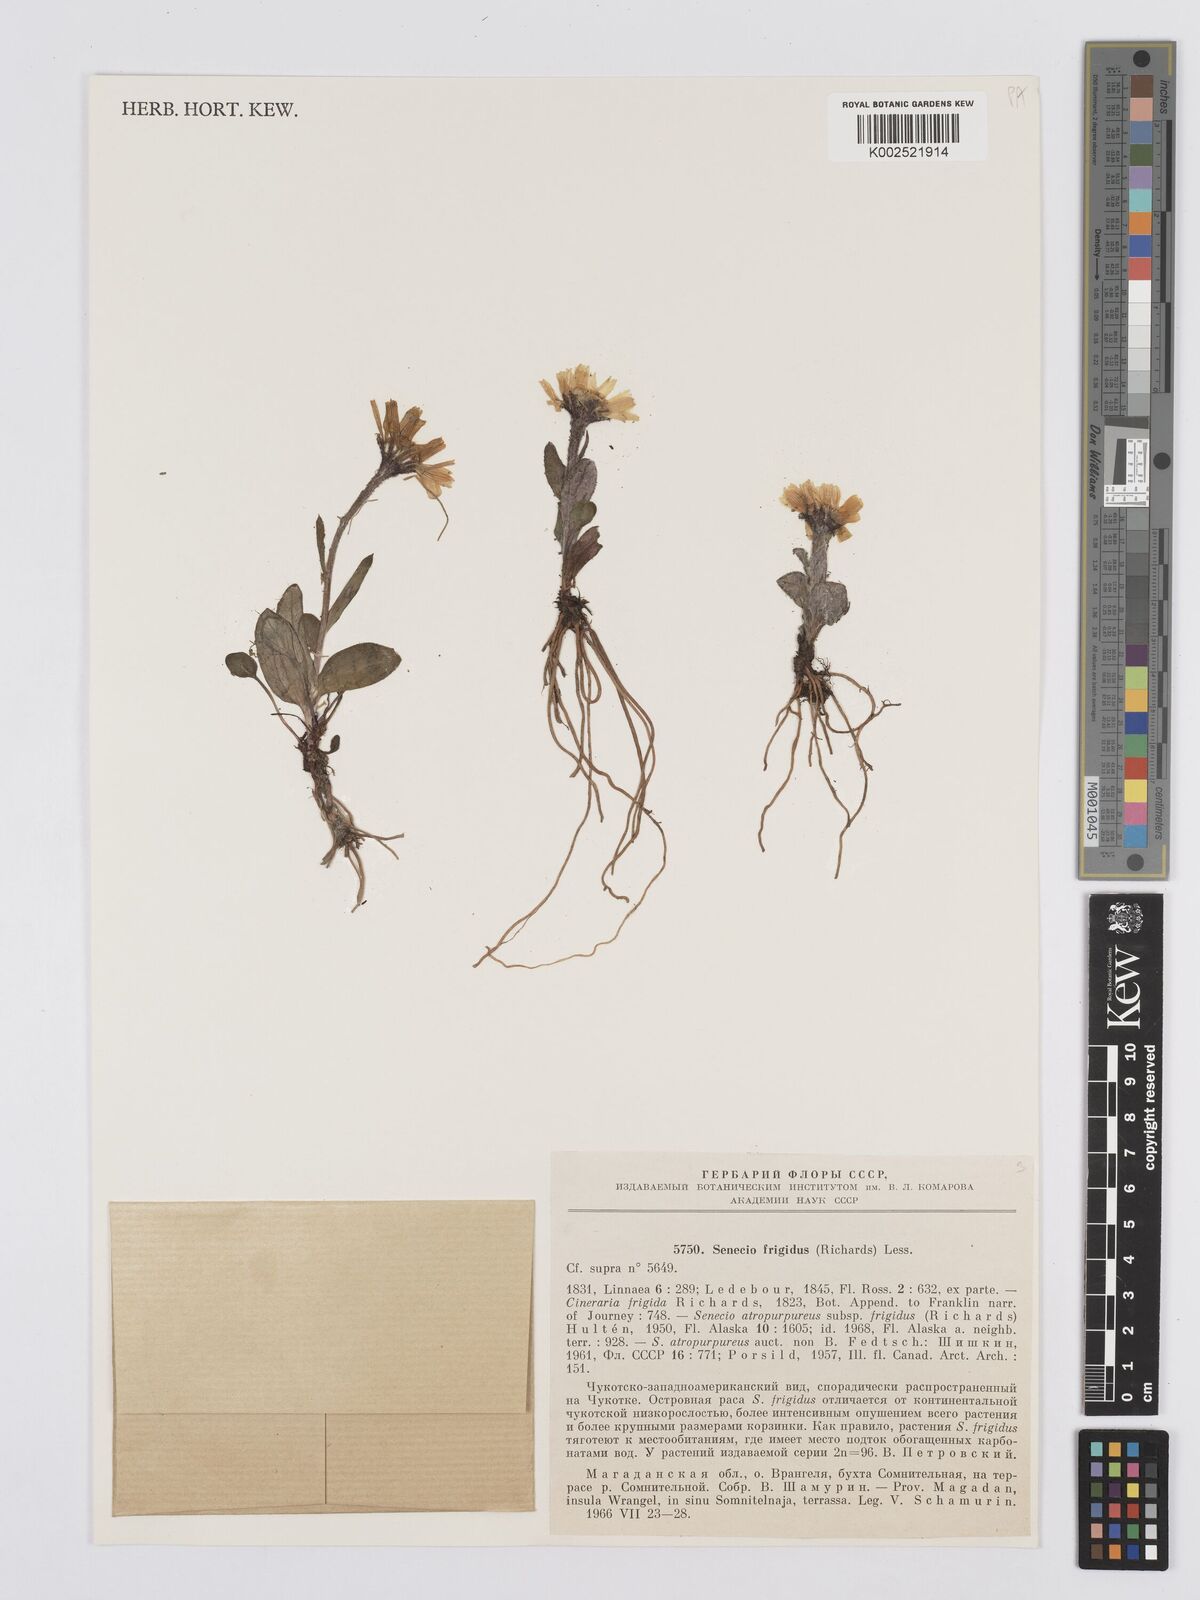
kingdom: Plantae
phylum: Tracheophyta
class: Magnoliopsida
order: Asterales
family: Asteraceae
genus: Tephroseris
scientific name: Tephroseris
